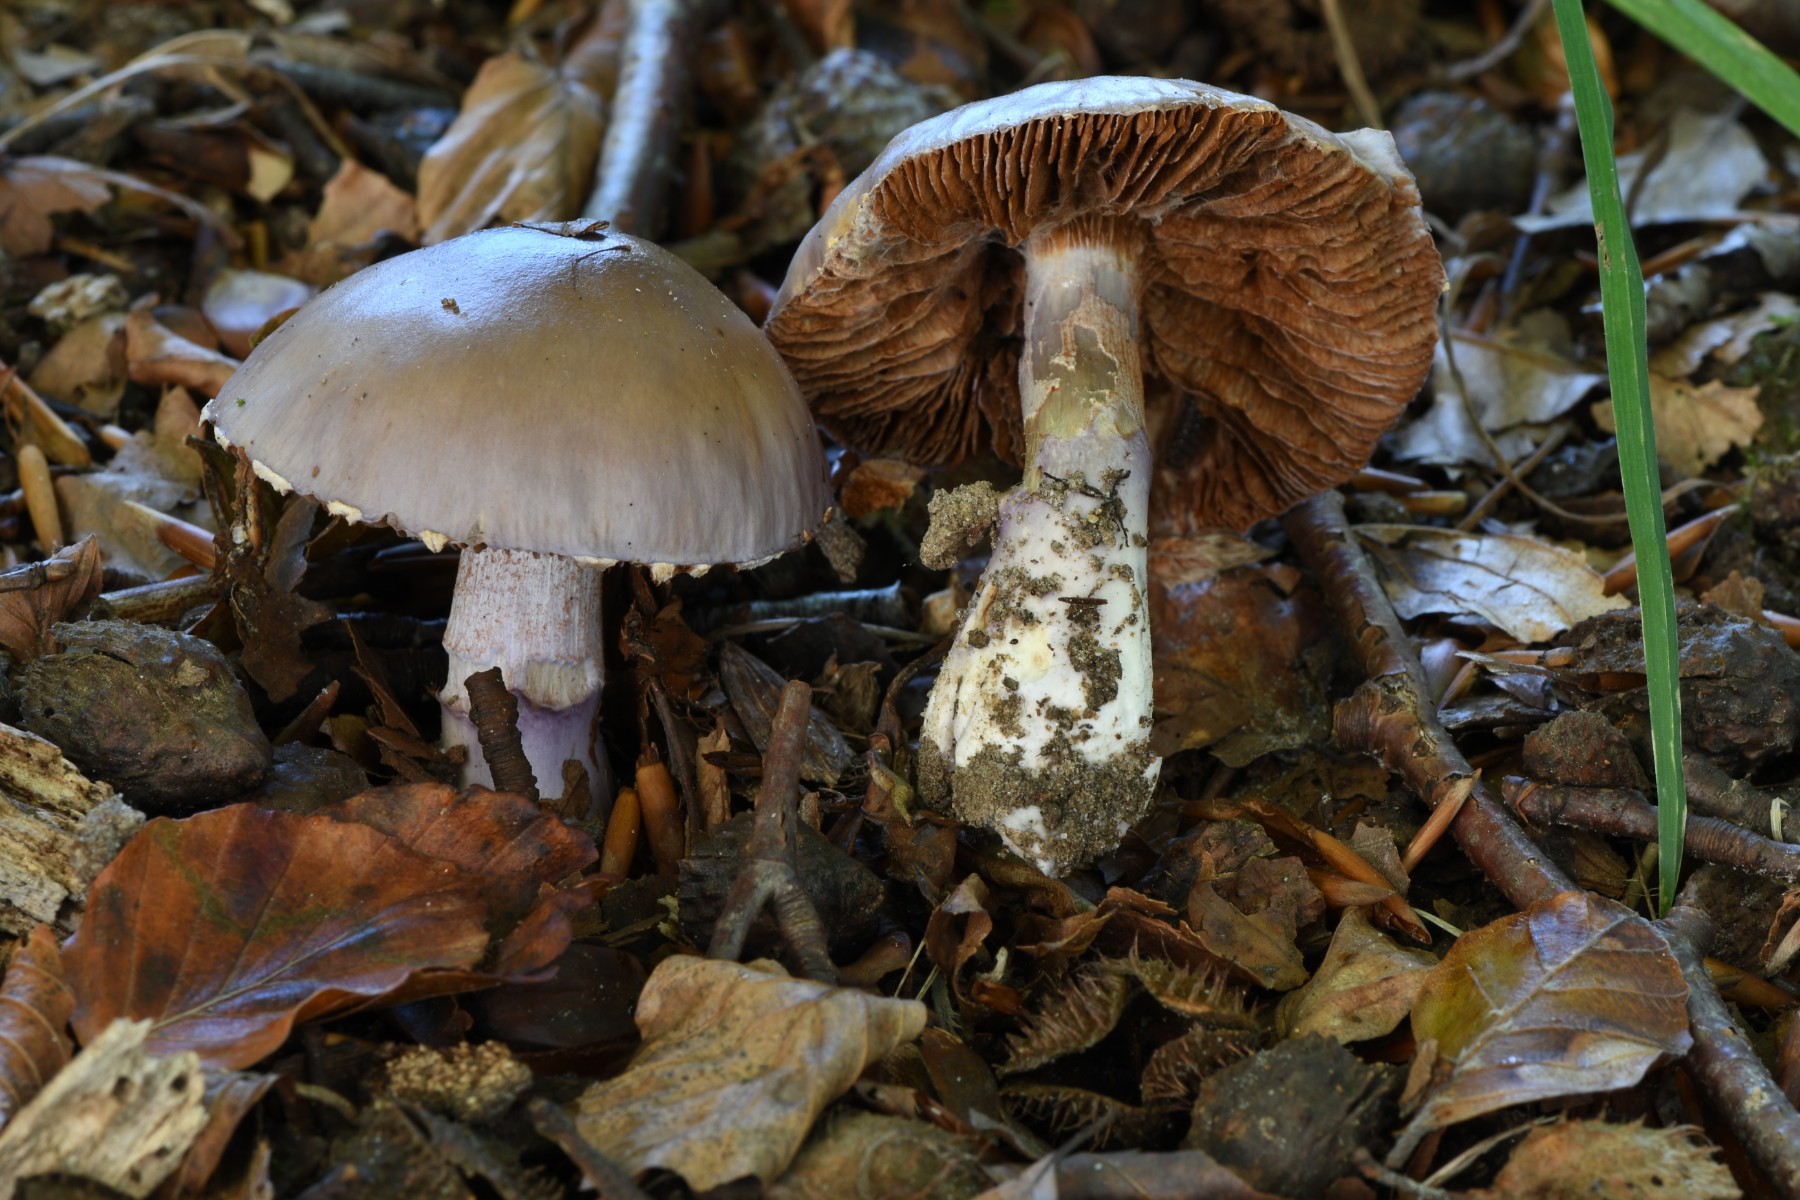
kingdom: Fungi
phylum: Basidiomycota
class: Agaricomycetes
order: Agaricales
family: Cortinariaceae
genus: Cortinarius
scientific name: Cortinarius
